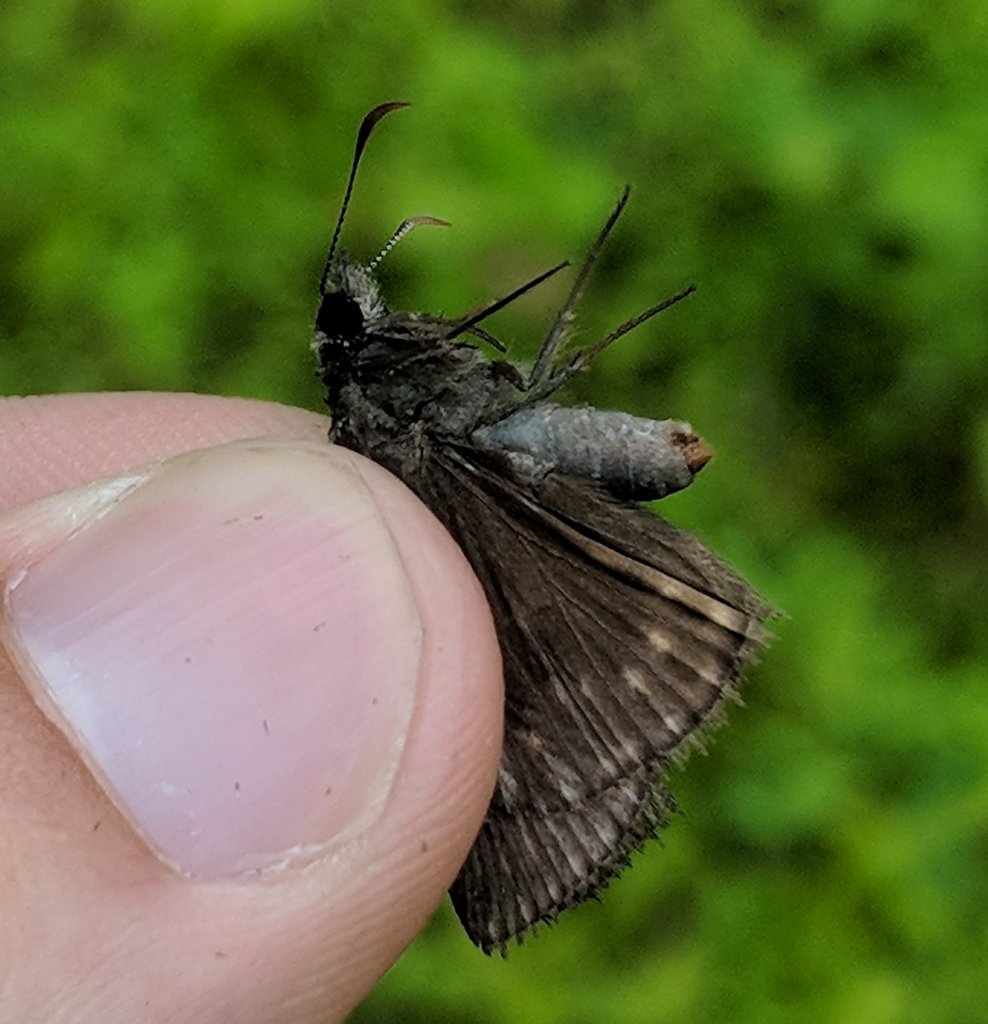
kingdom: Animalia
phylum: Arthropoda
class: Insecta
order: Lepidoptera
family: Hesperiidae
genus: Erynnis
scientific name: Erynnis
